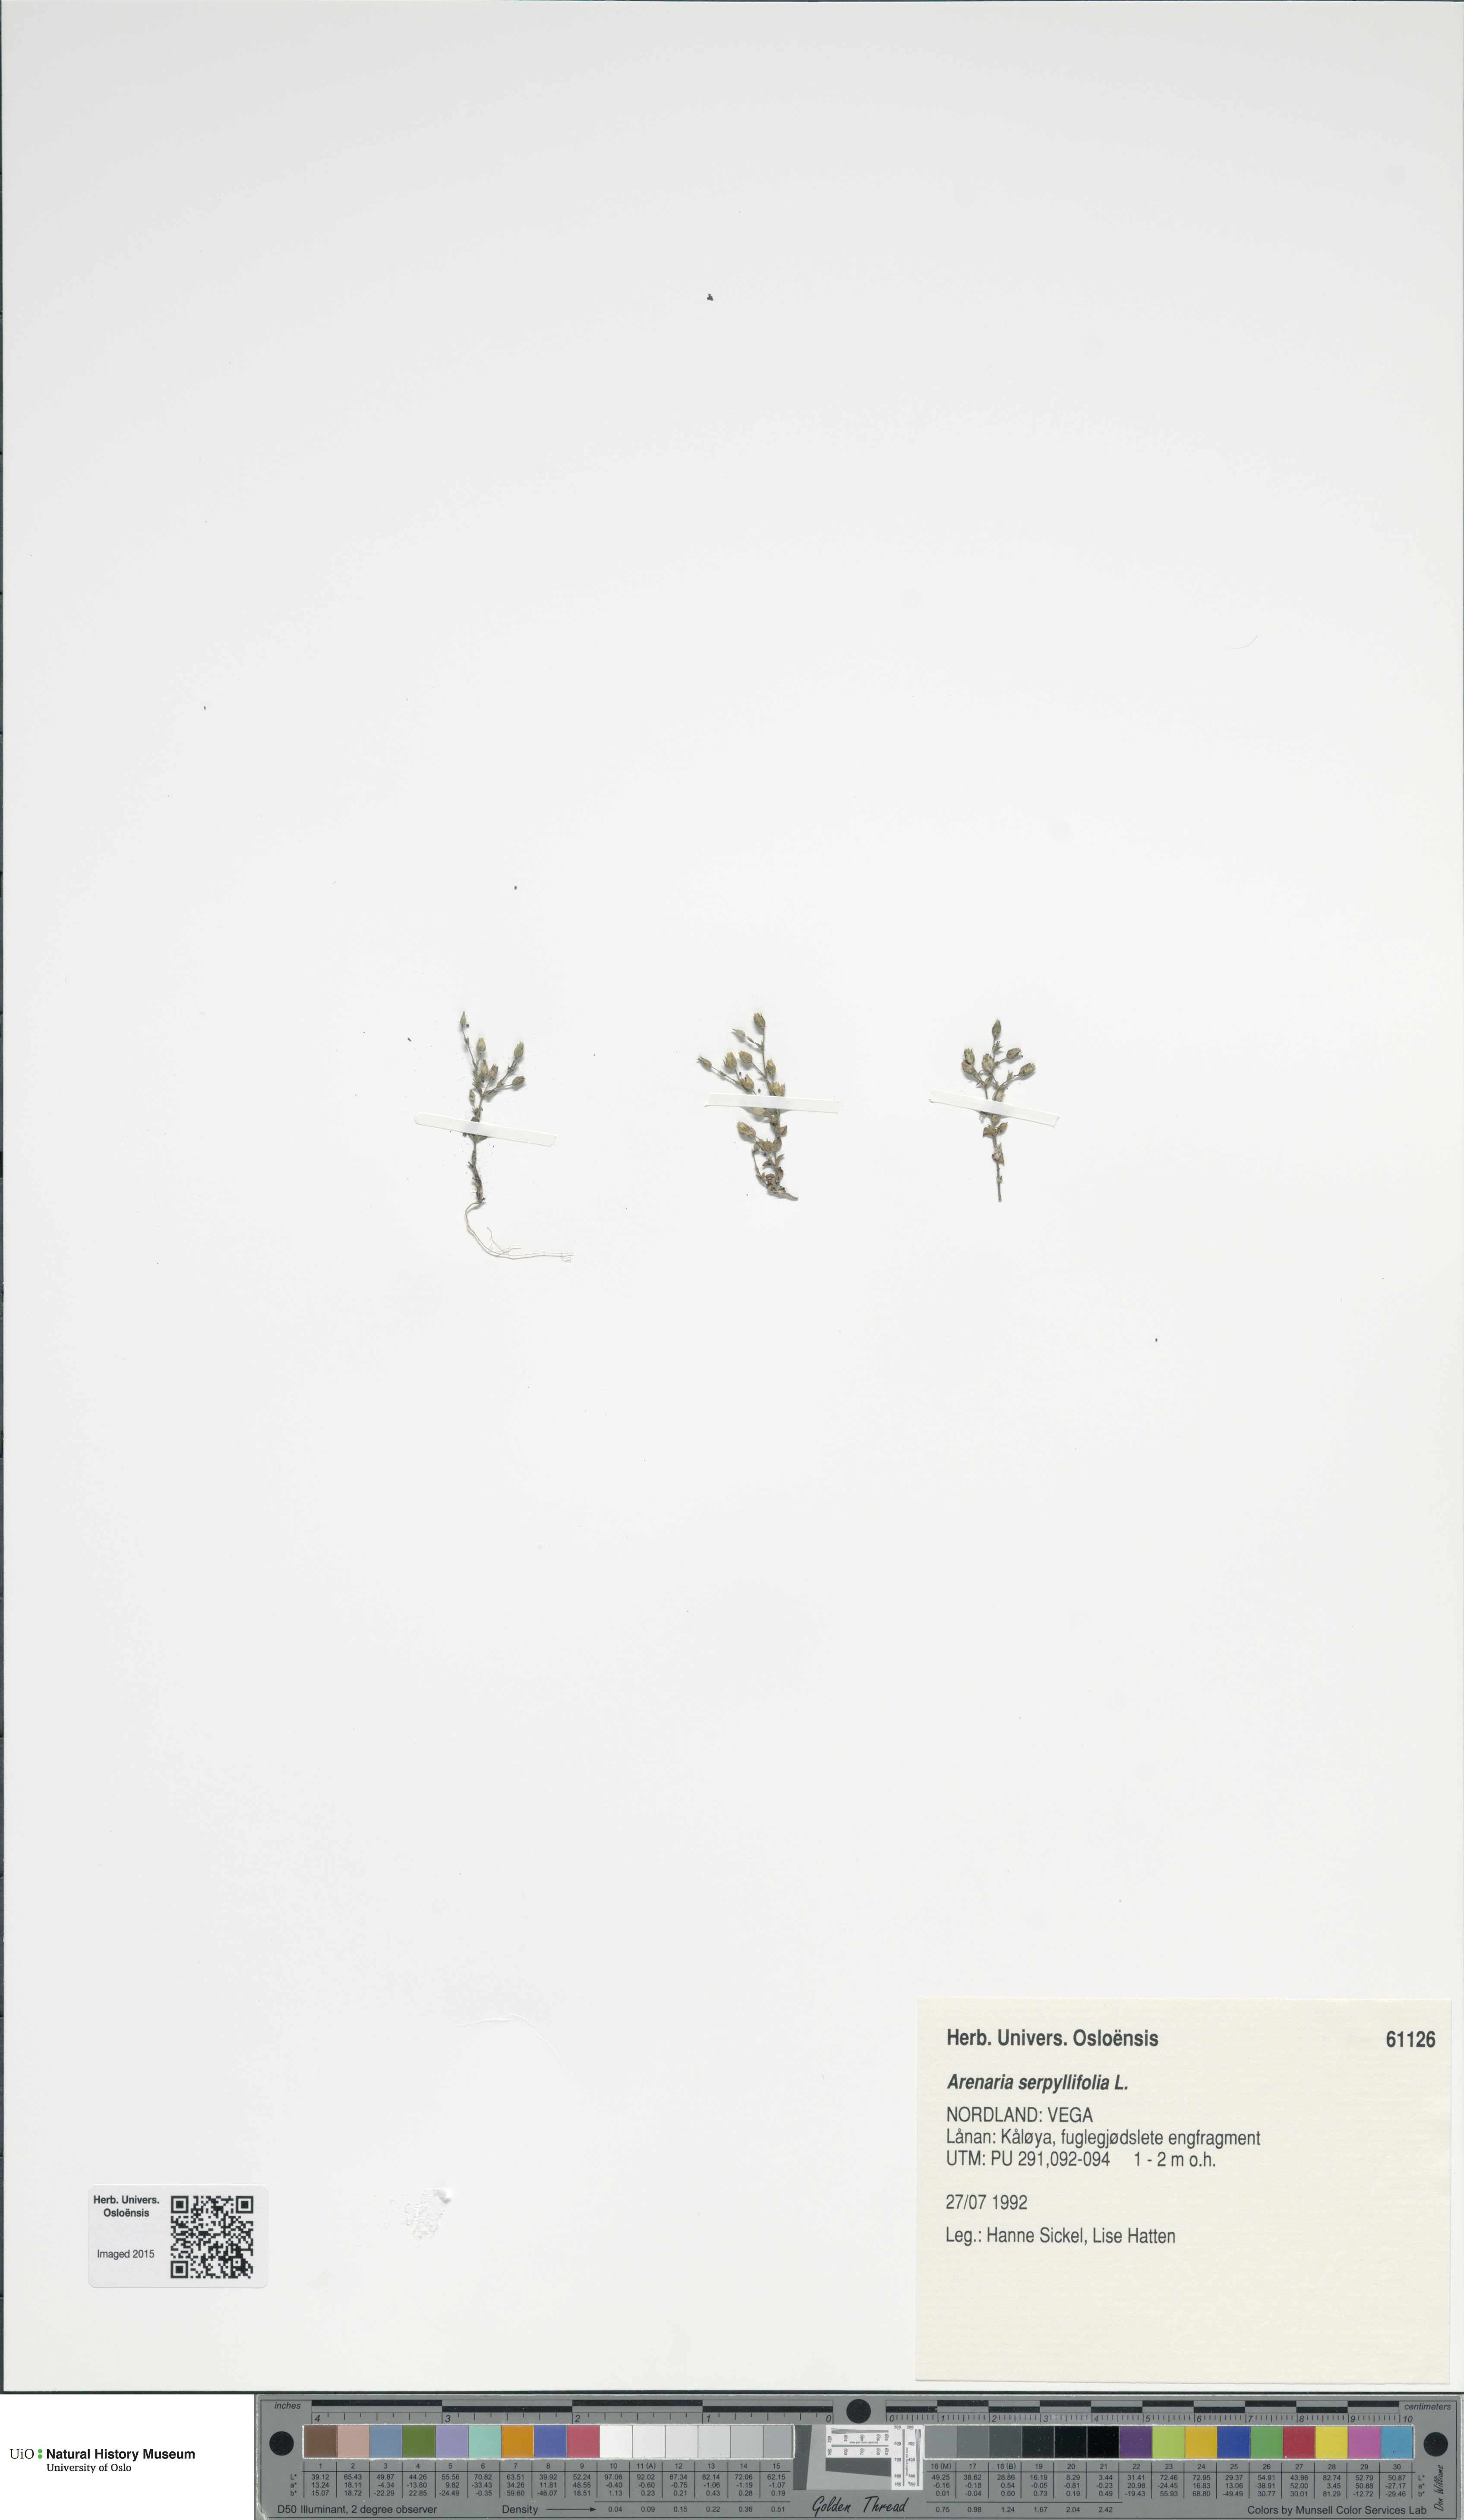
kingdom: Plantae
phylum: Tracheophyta
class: Magnoliopsida
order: Caryophyllales
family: Caryophyllaceae
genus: Arenaria
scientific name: Arenaria serpyllifolia
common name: Thyme-leaved sandwort
